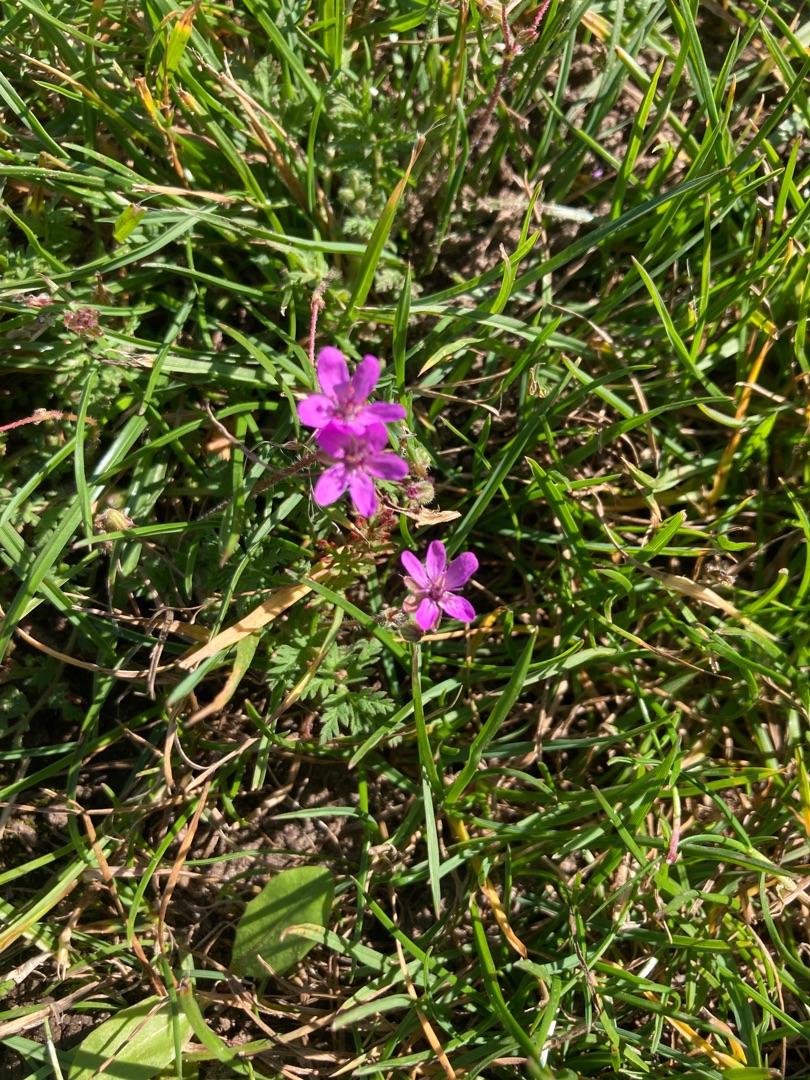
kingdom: Plantae
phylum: Tracheophyta
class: Magnoliopsida
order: Geraniales
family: Geraniaceae
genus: Erodium
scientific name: Erodium cicutarium
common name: Hejrenæb
